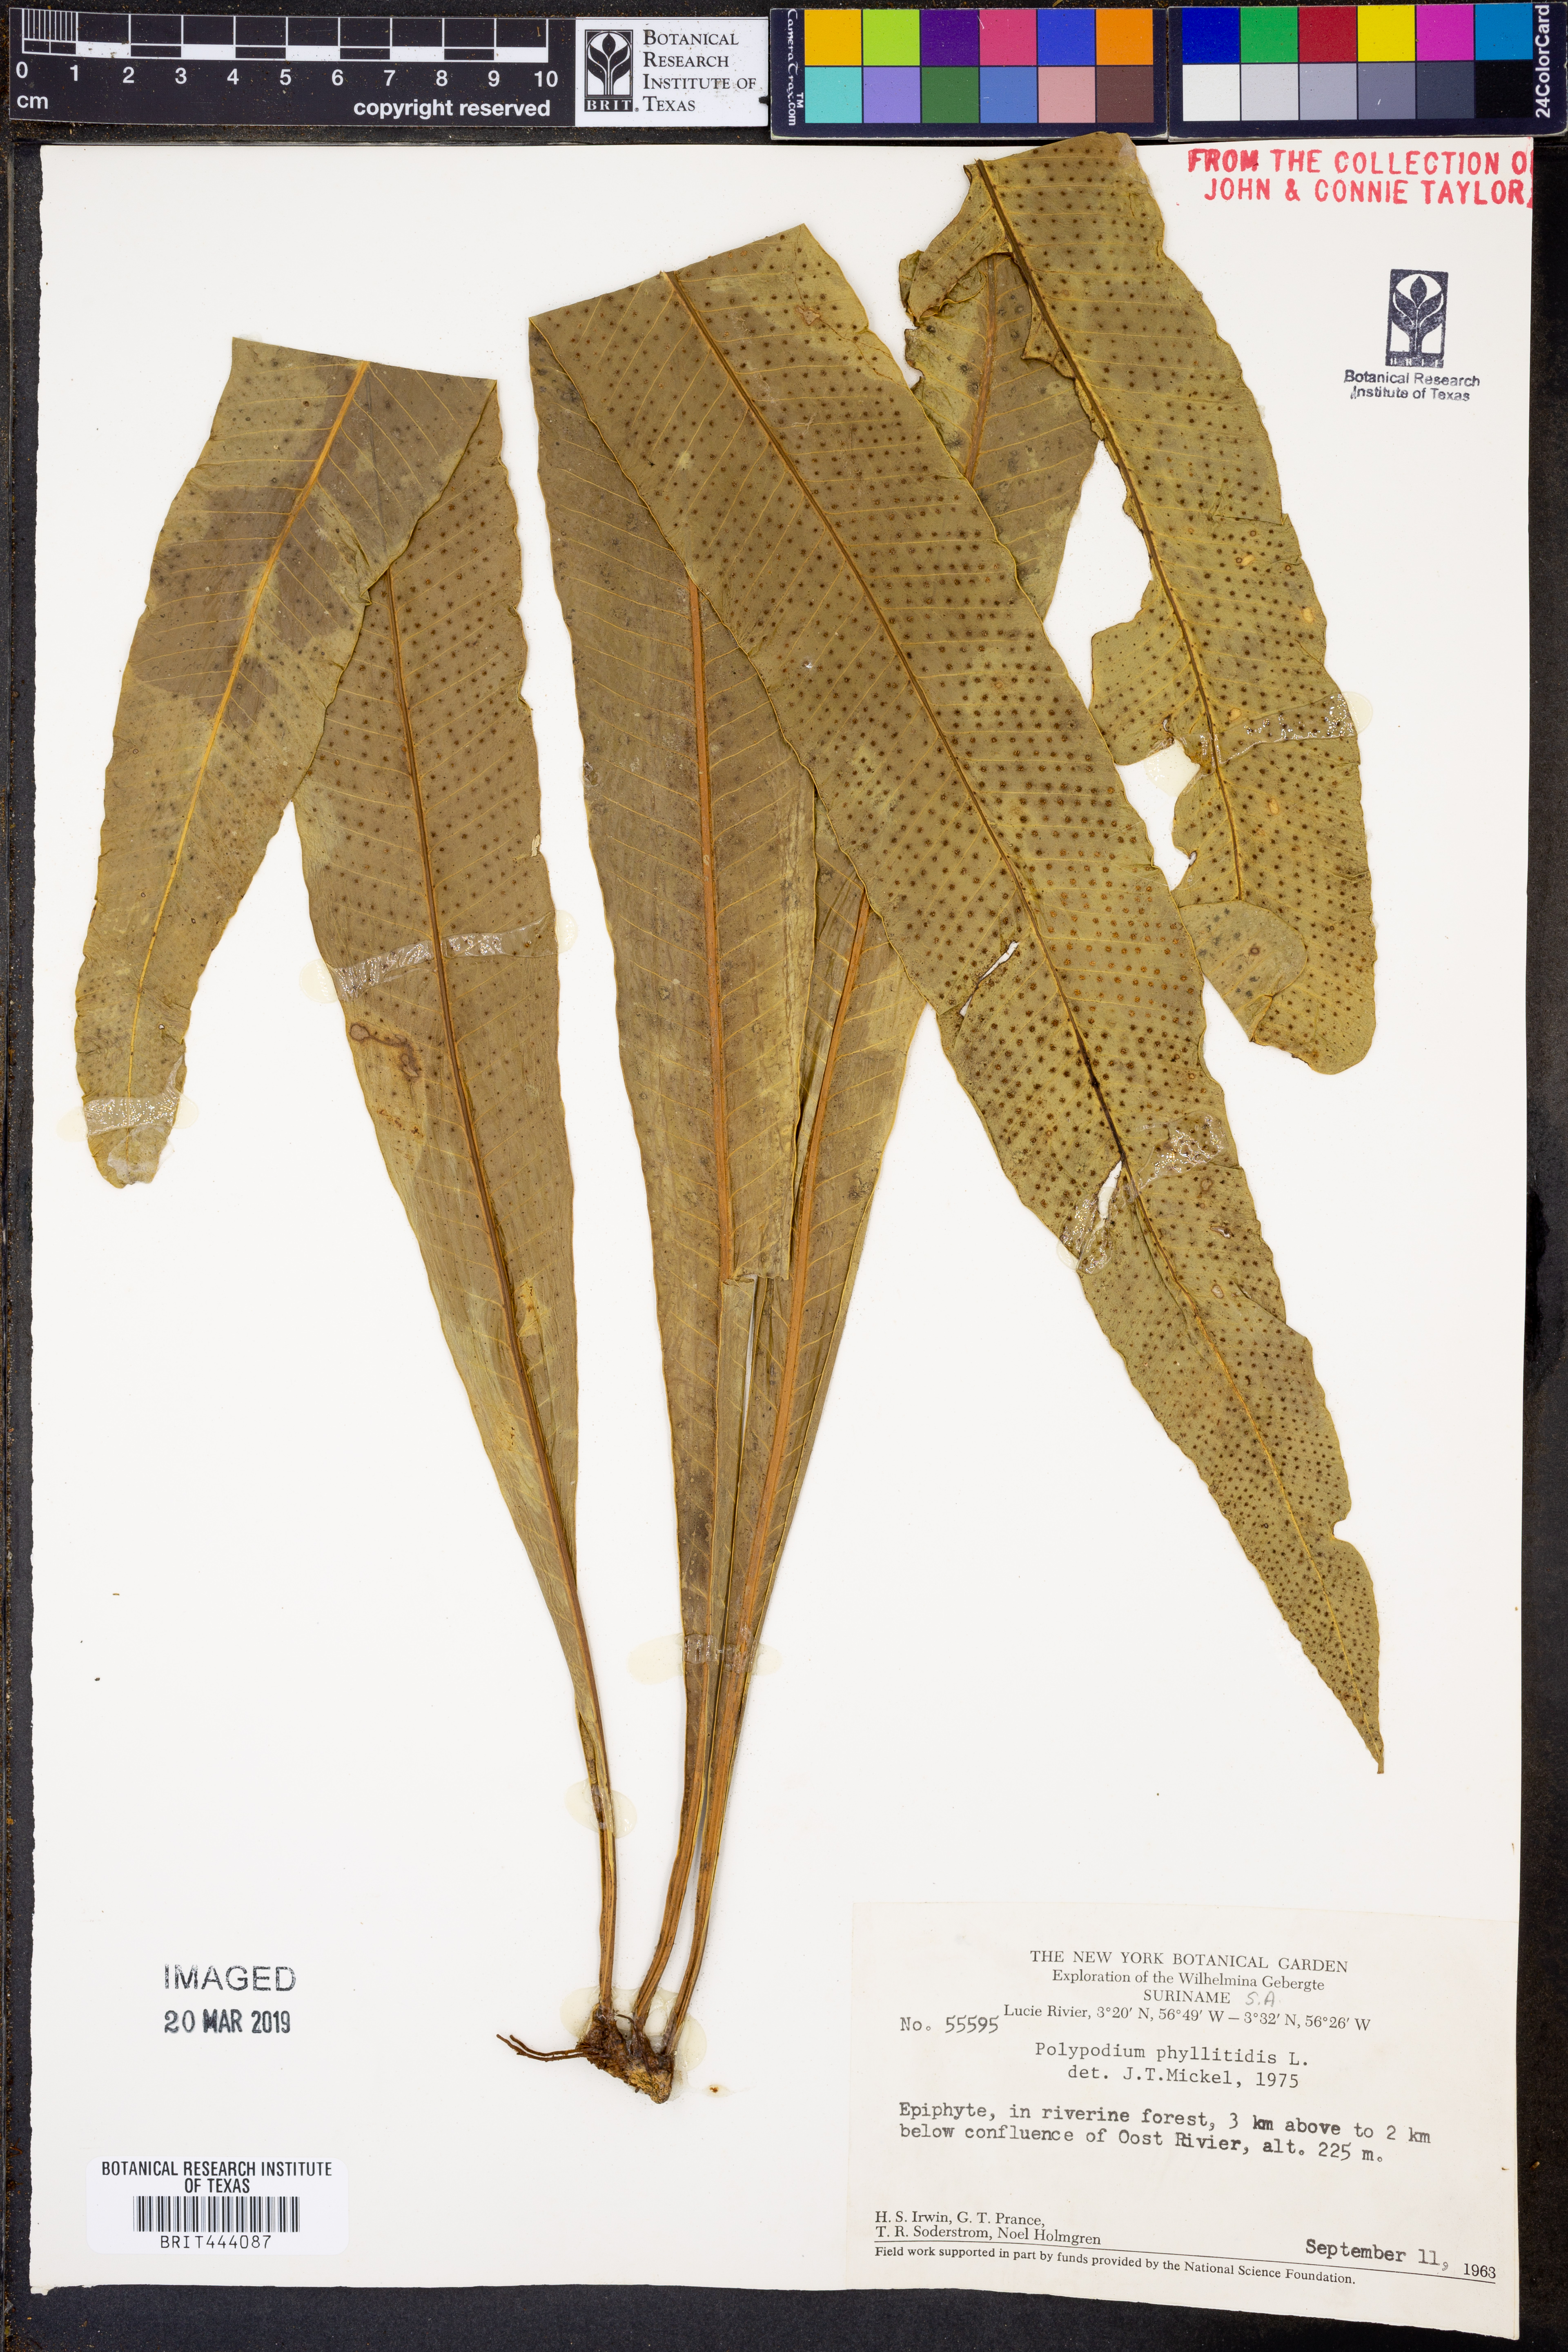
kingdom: Plantae
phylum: Tracheophyta
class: Polypodiopsida
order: Polypodiales
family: Polypodiaceae
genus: Campyloneurum
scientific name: Campyloneurum phyllitidis
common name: Cow-tongue fern
